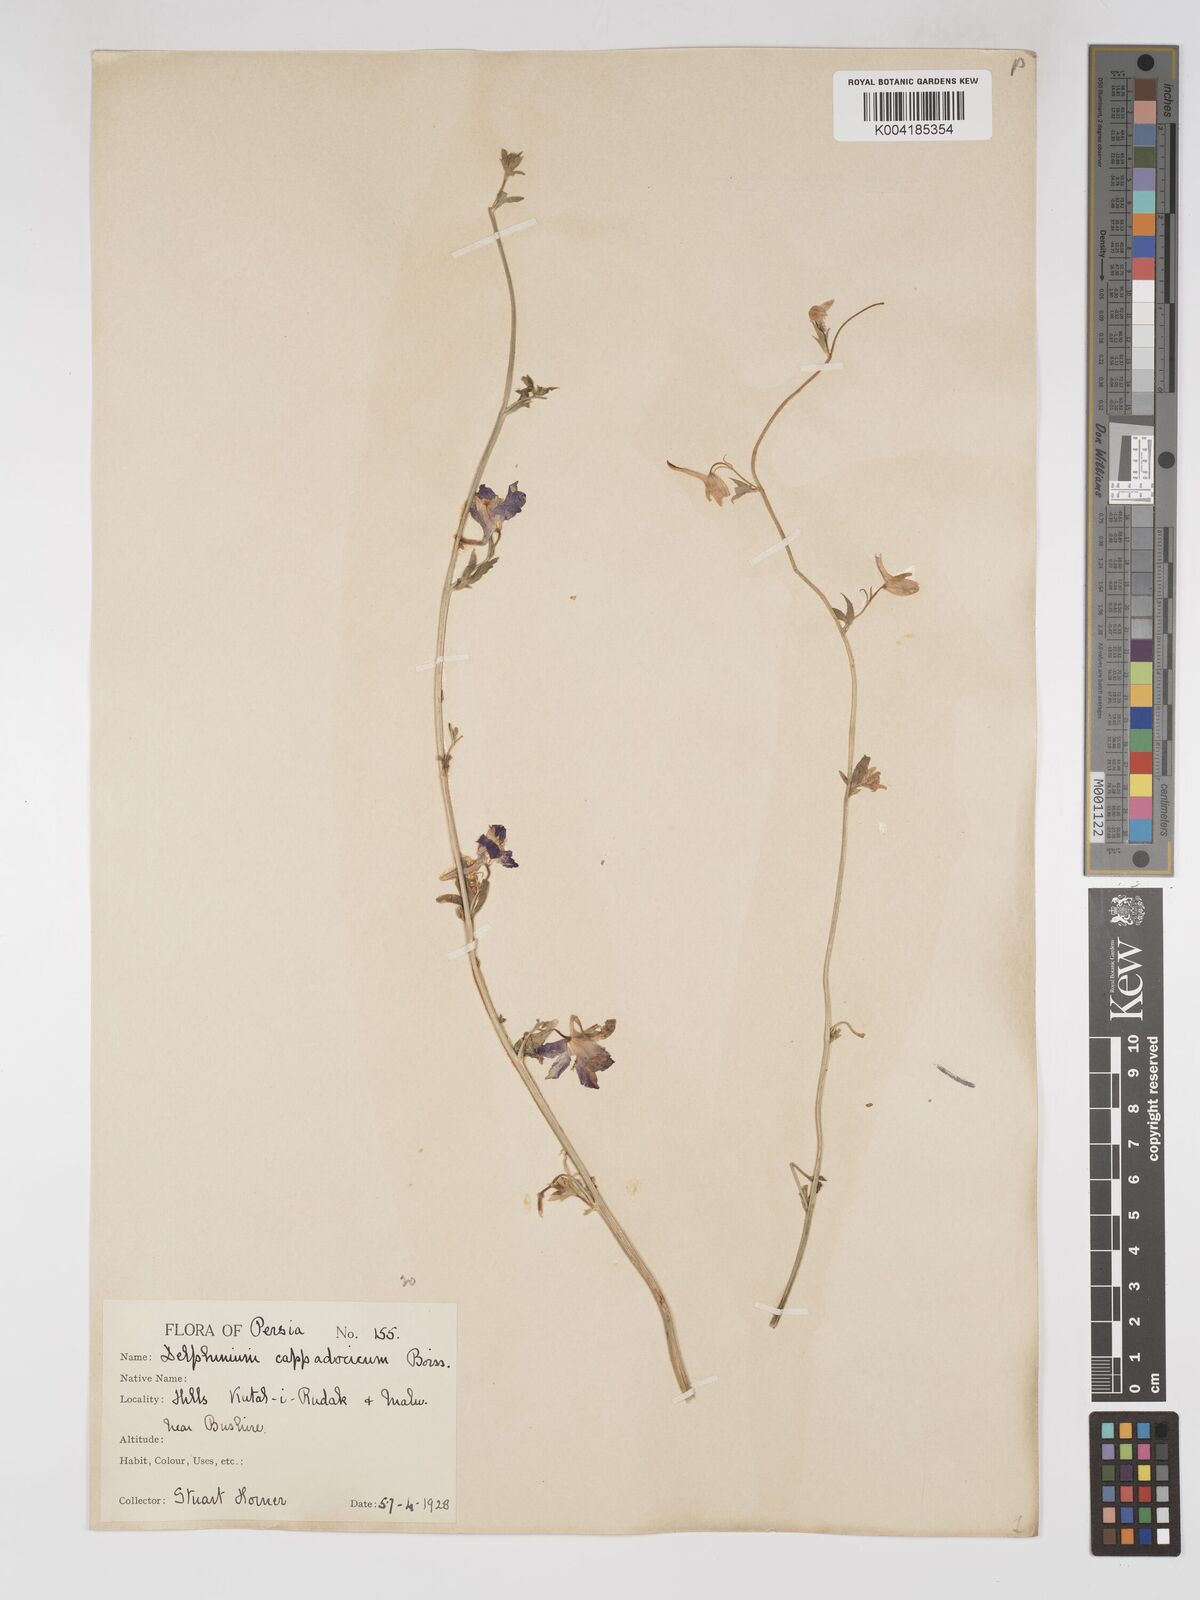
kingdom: Plantae
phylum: Tracheophyta
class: Magnoliopsida
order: Ranunculales
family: Ranunculaceae
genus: Delphinium
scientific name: Delphinium oliverianum
